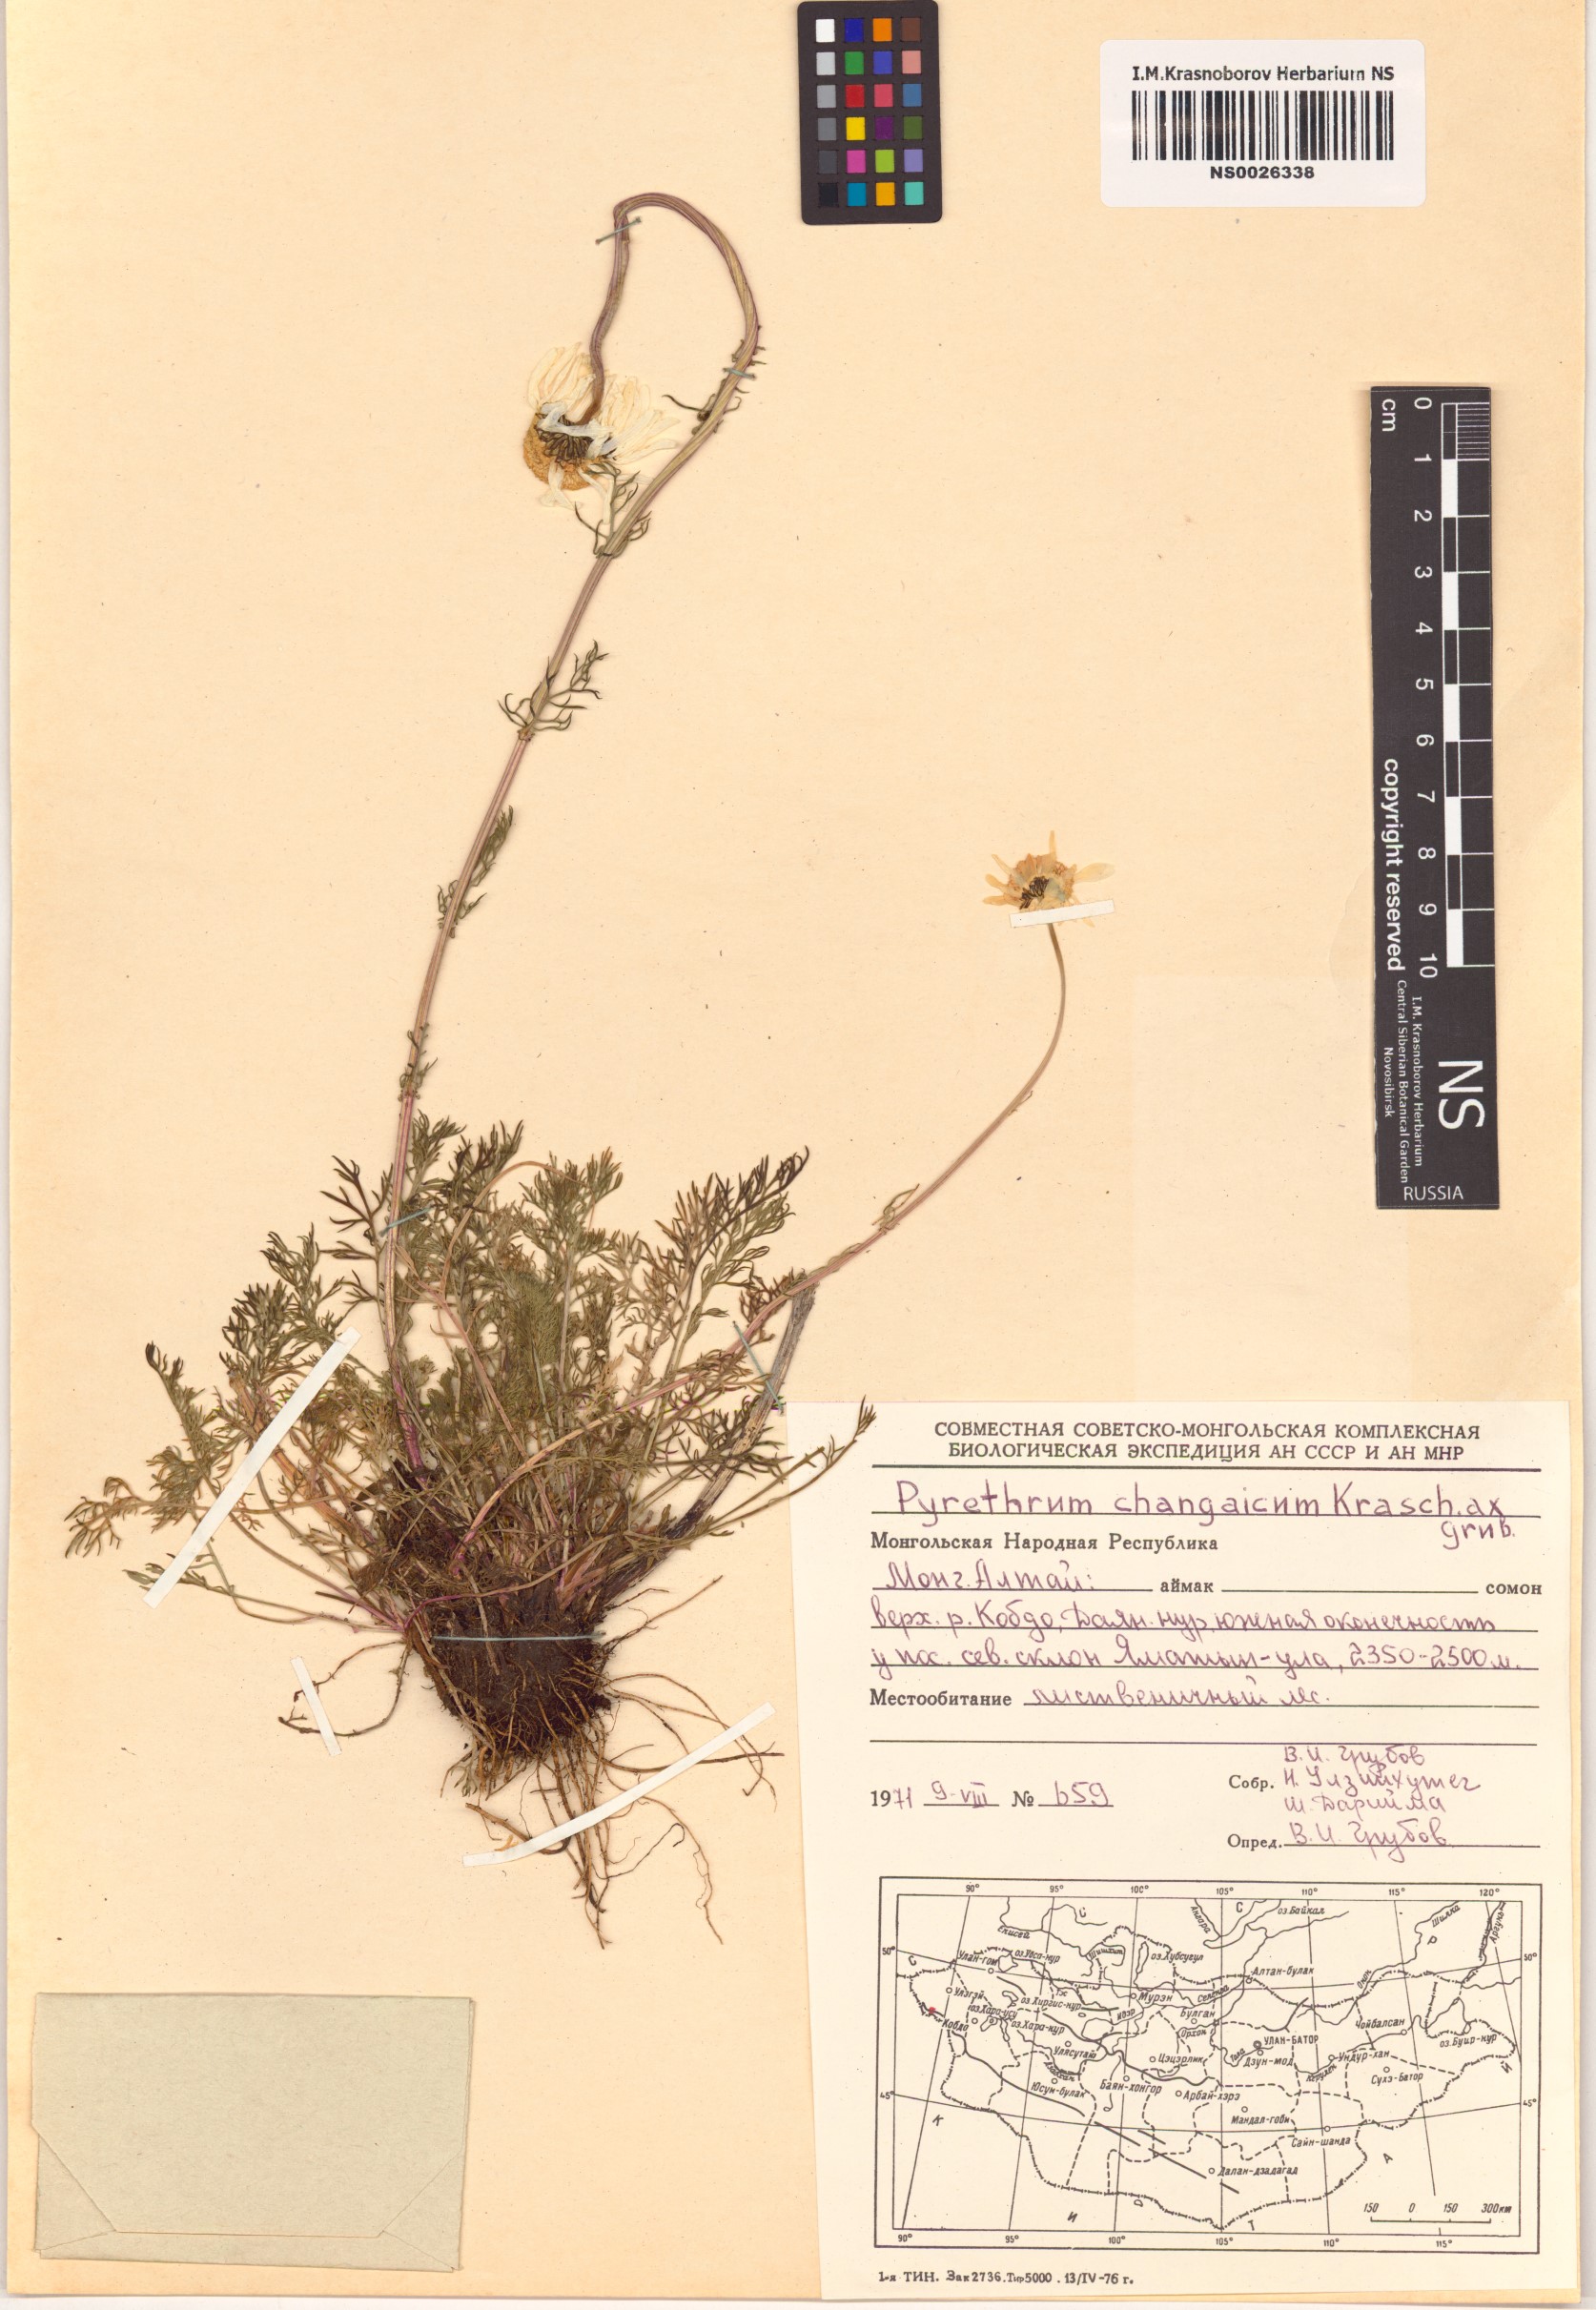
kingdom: Plantae
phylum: Tracheophyta
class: Magnoliopsida
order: Asterales
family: Asteraceae
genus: Tanacetum
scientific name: Tanacetum changaicum
